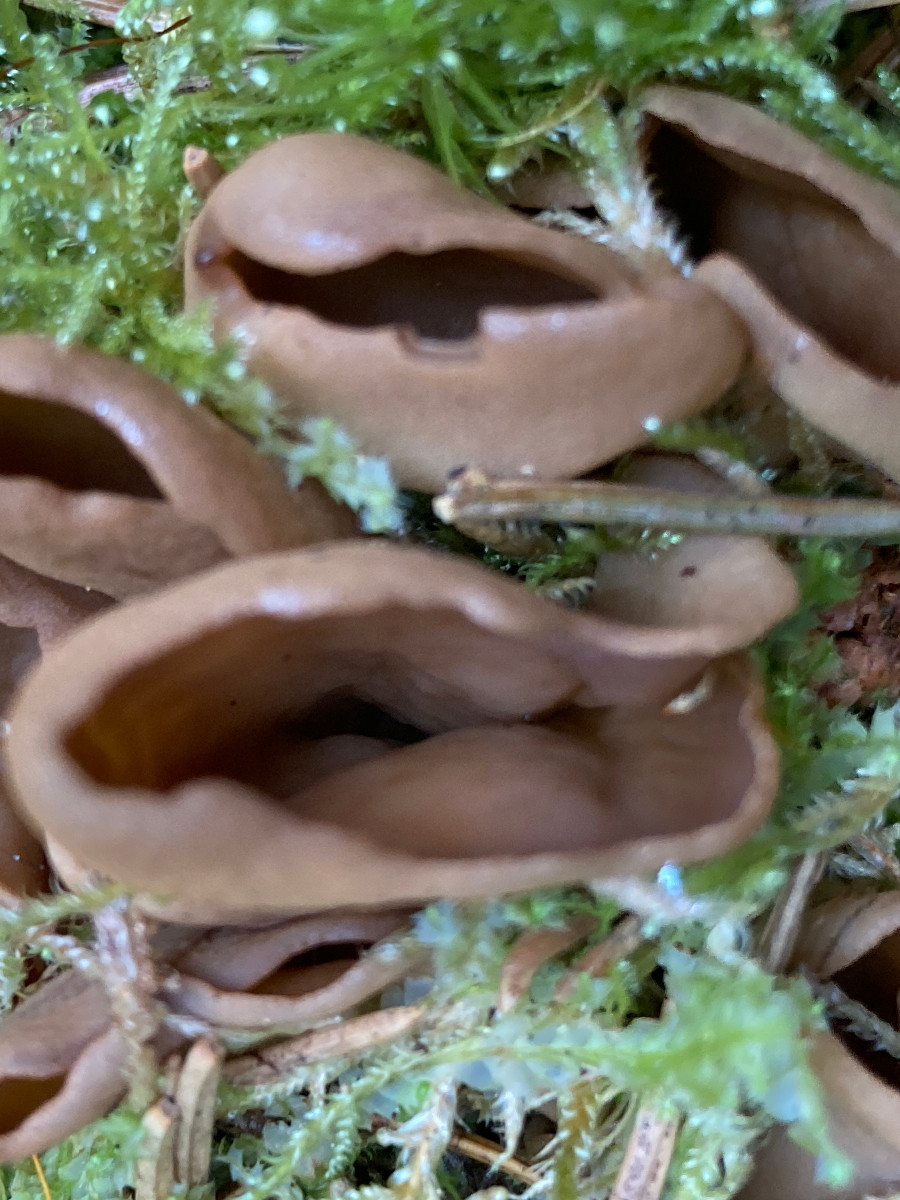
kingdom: Fungi
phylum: Ascomycota
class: Pezizomycetes
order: Pezizales
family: Otideaceae
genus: Otidea
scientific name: Otidea
